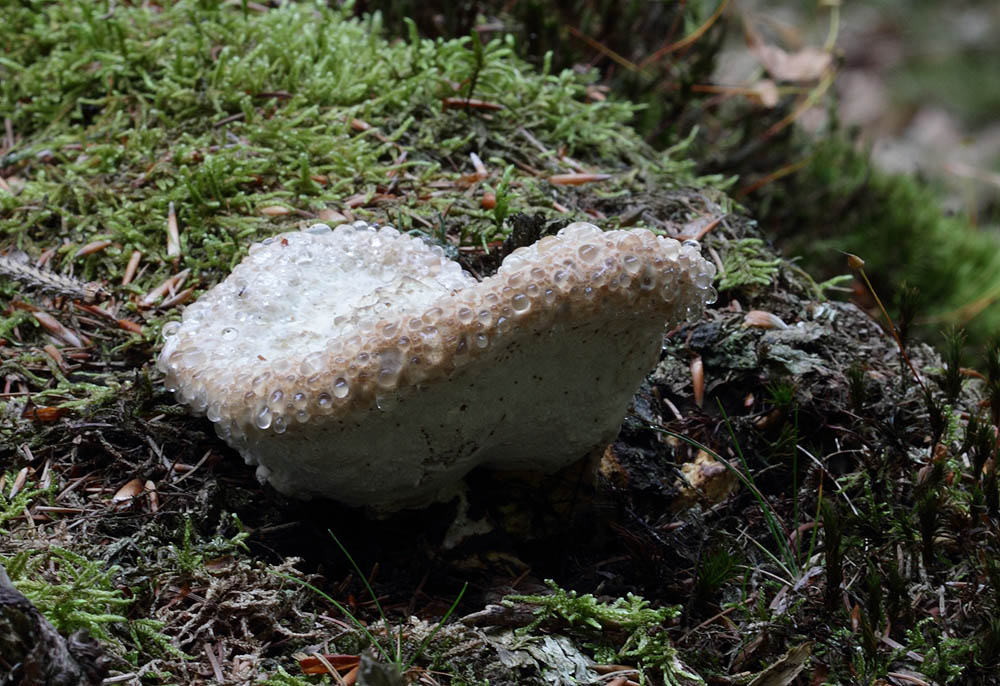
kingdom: Fungi
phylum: Basidiomycota
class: Agaricomycetes
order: Polyporales
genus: Calcipostia
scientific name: Calcipostia guttulata
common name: dråbe-kødporesvamp
